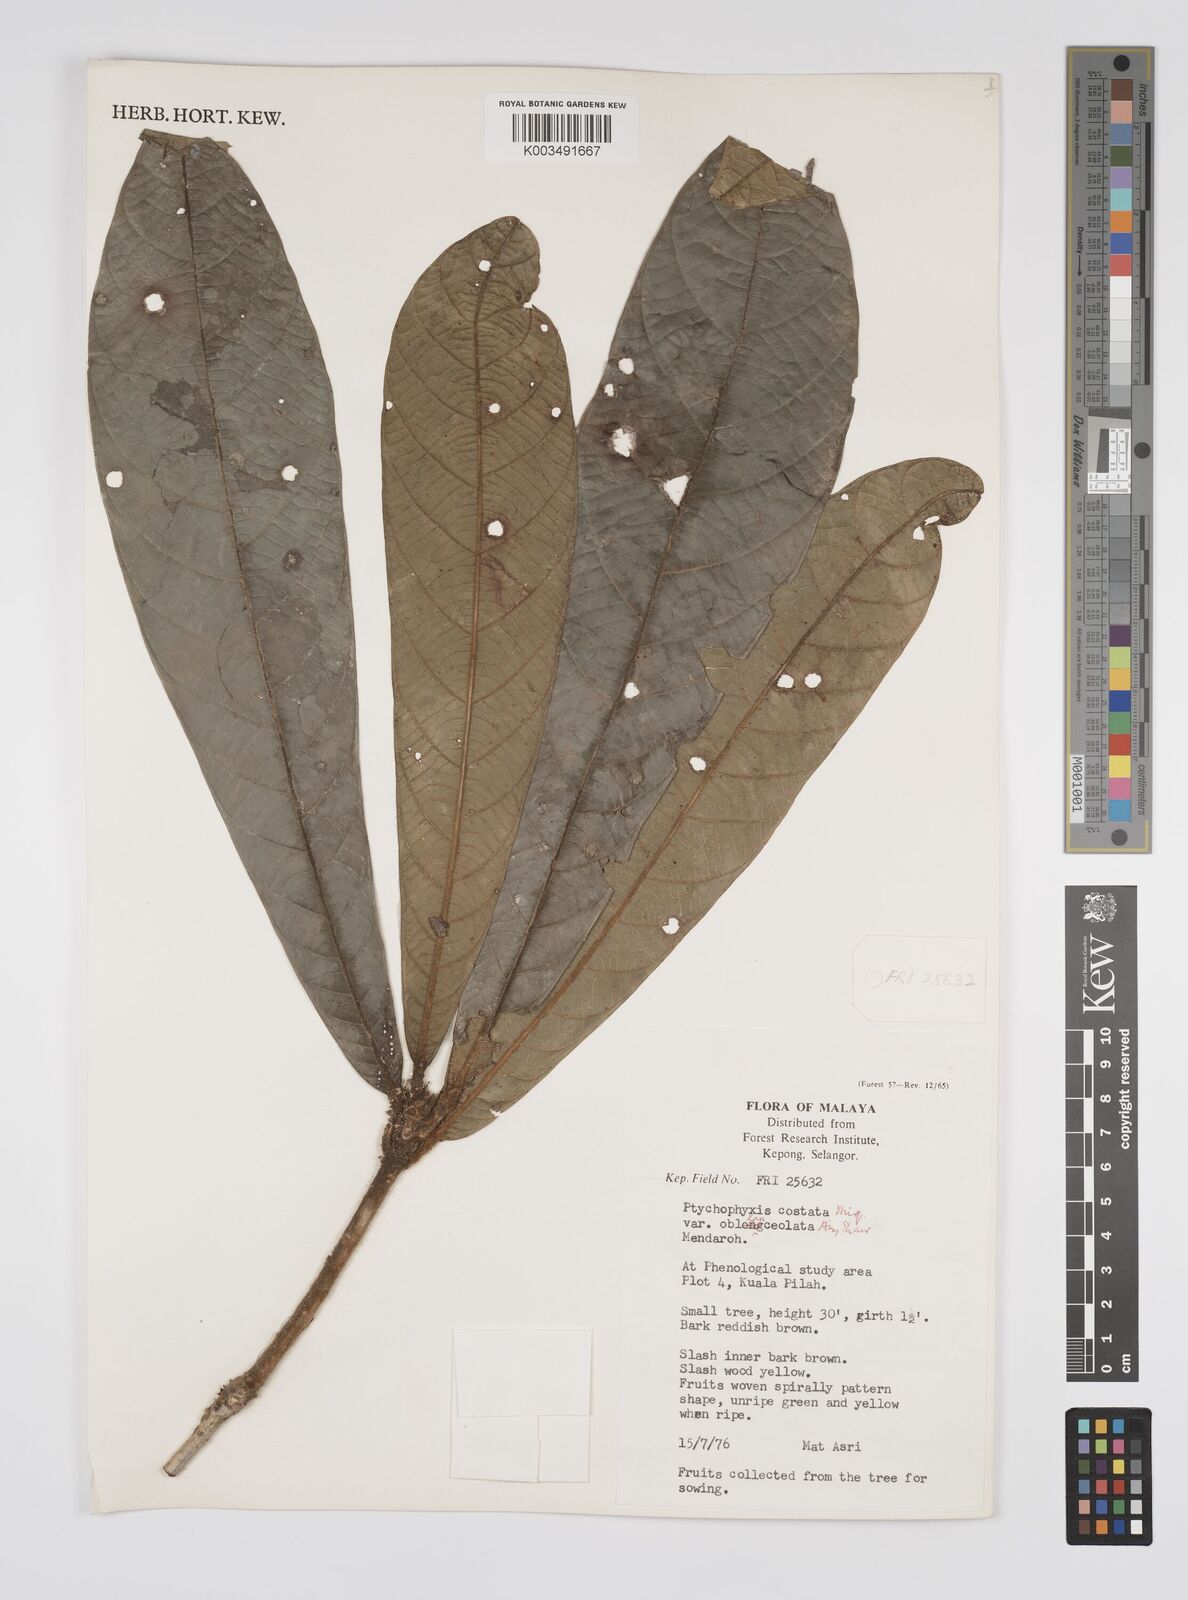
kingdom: Plantae
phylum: Tracheophyta
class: Magnoliopsida
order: Malpighiales
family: Euphorbiaceae
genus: Ptychopyxis
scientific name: Ptychopyxis caput-medusae
